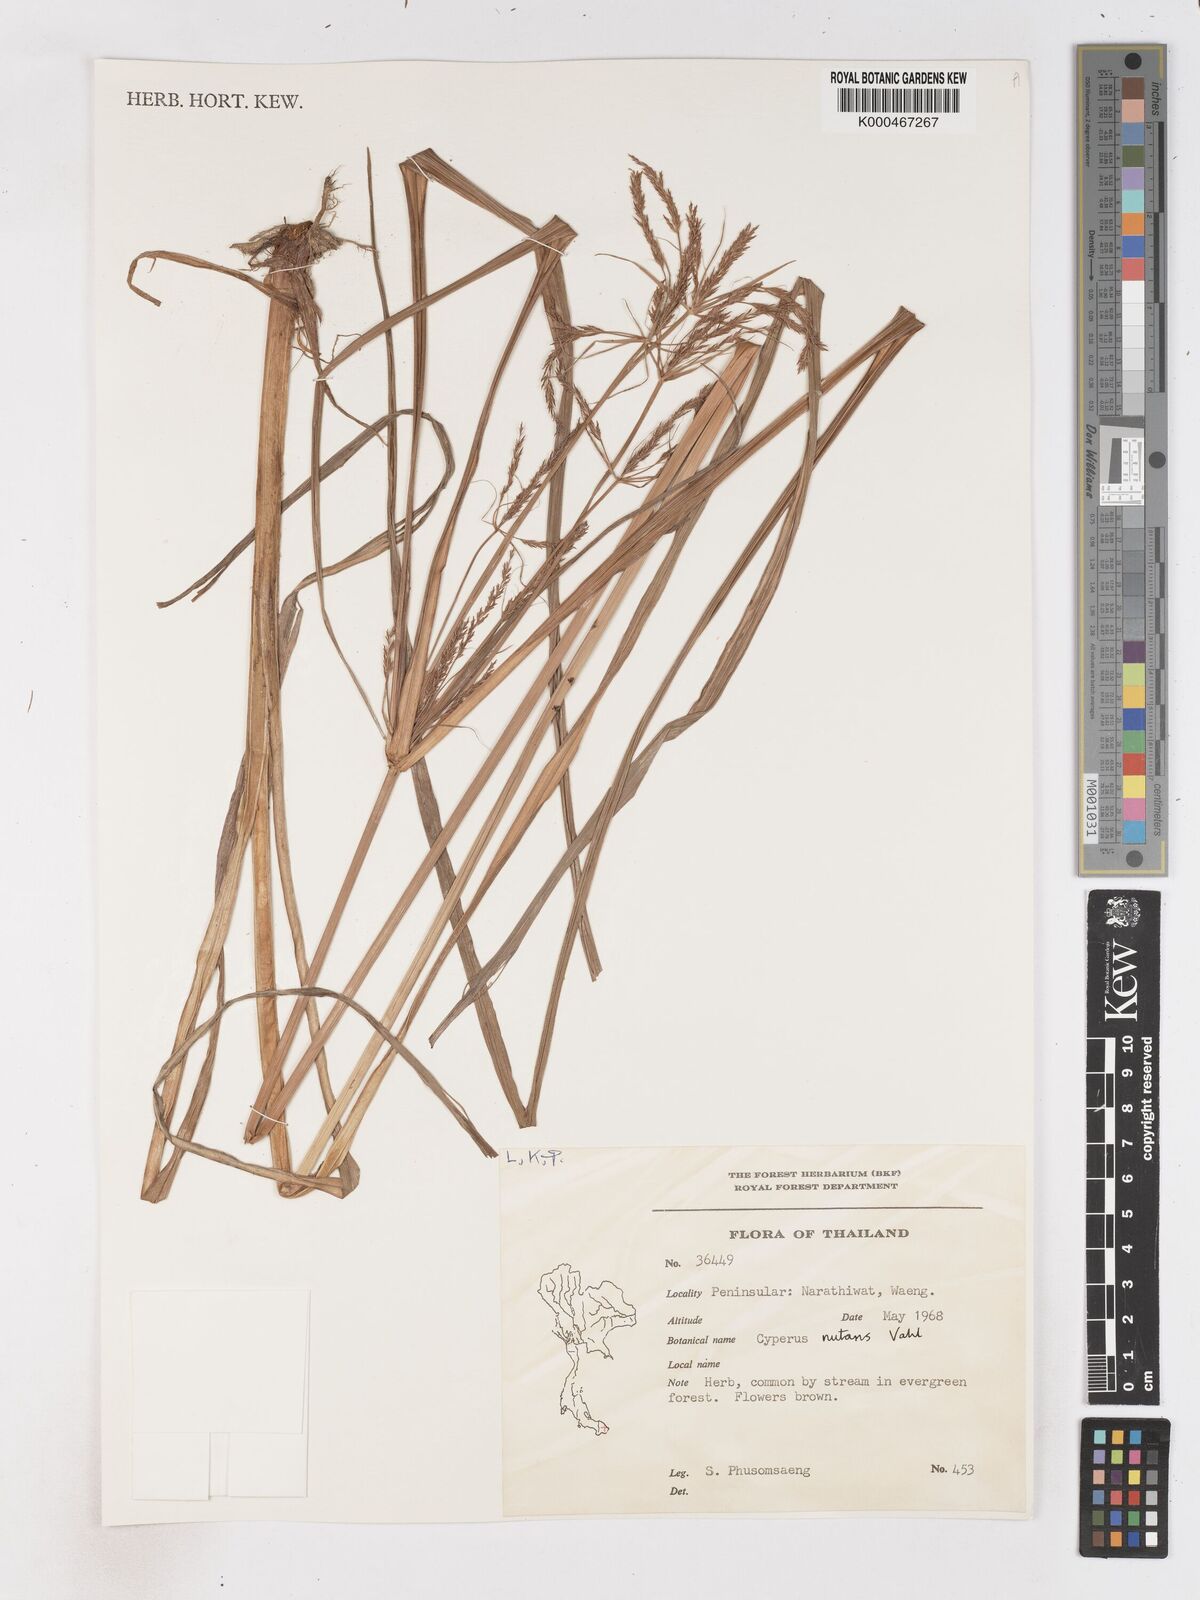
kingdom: Plantae
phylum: Tracheophyta
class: Liliopsida
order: Poales
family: Cyperaceae
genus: Cyperus
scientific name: Cyperus nutans
